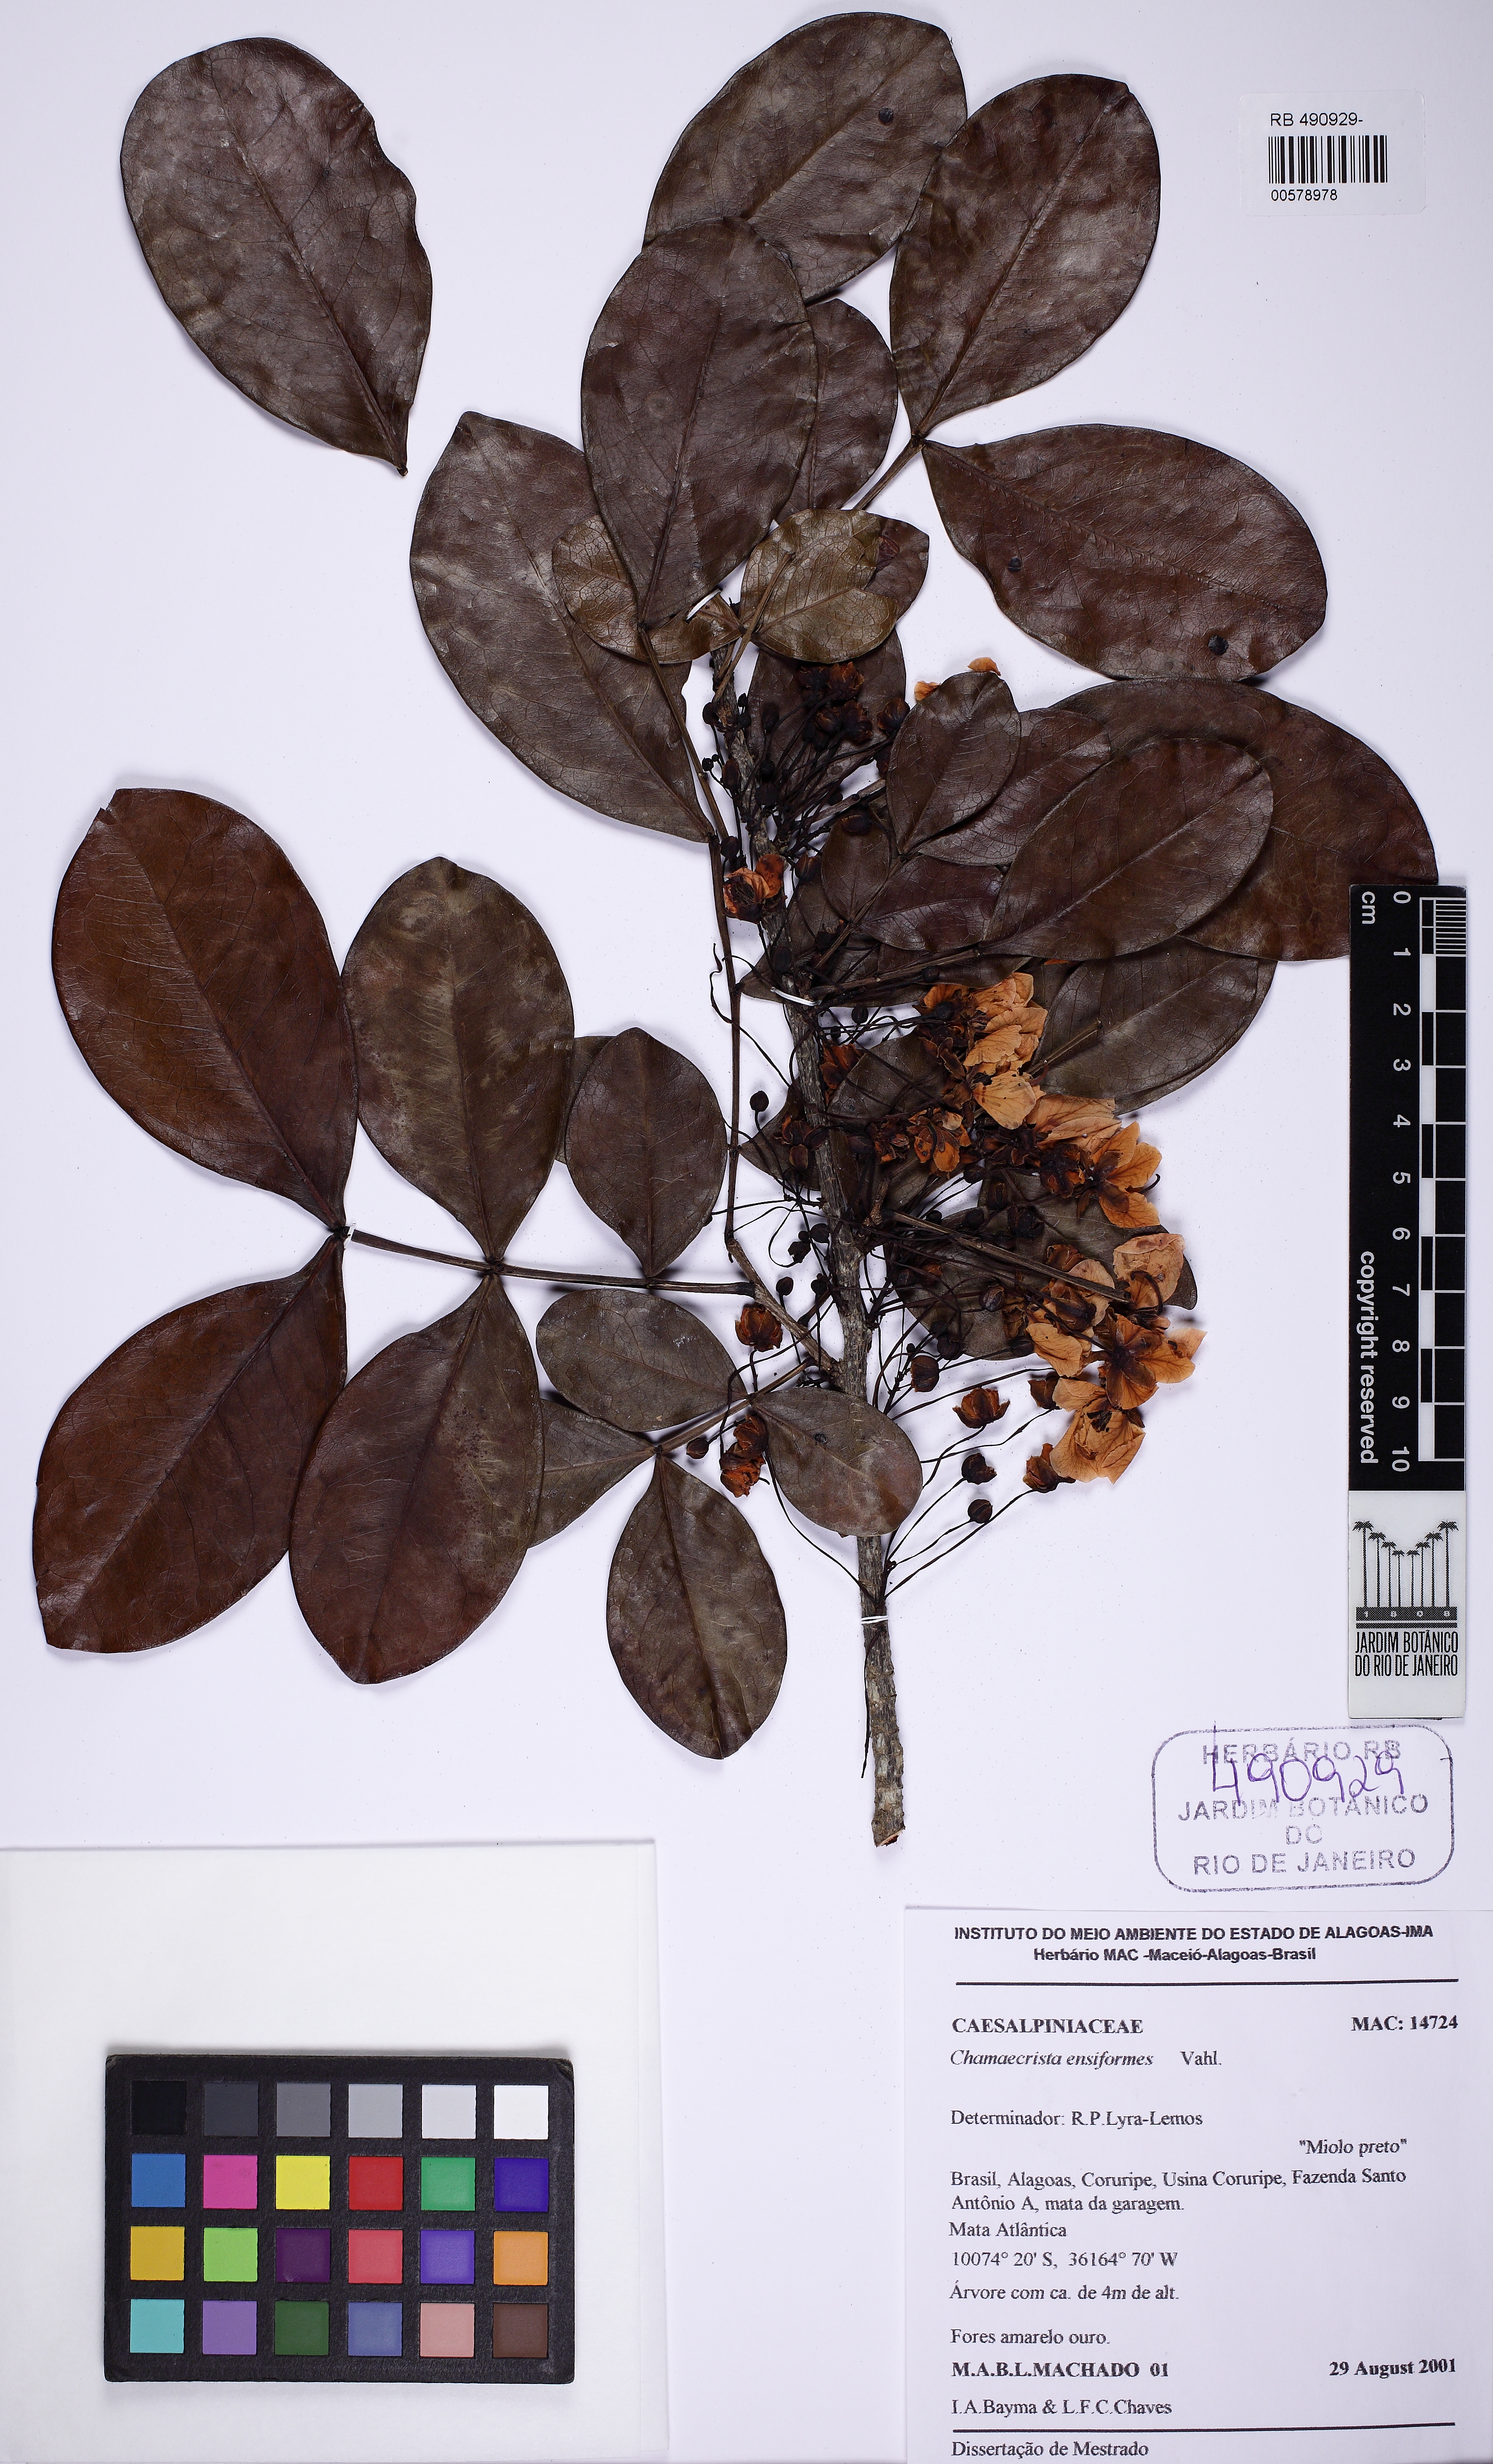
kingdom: Plantae
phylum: Tracheophyta
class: Magnoliopsida
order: Fabales
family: Fabaceae
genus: Chamaecrista
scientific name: Chamaecrista ensiformis
